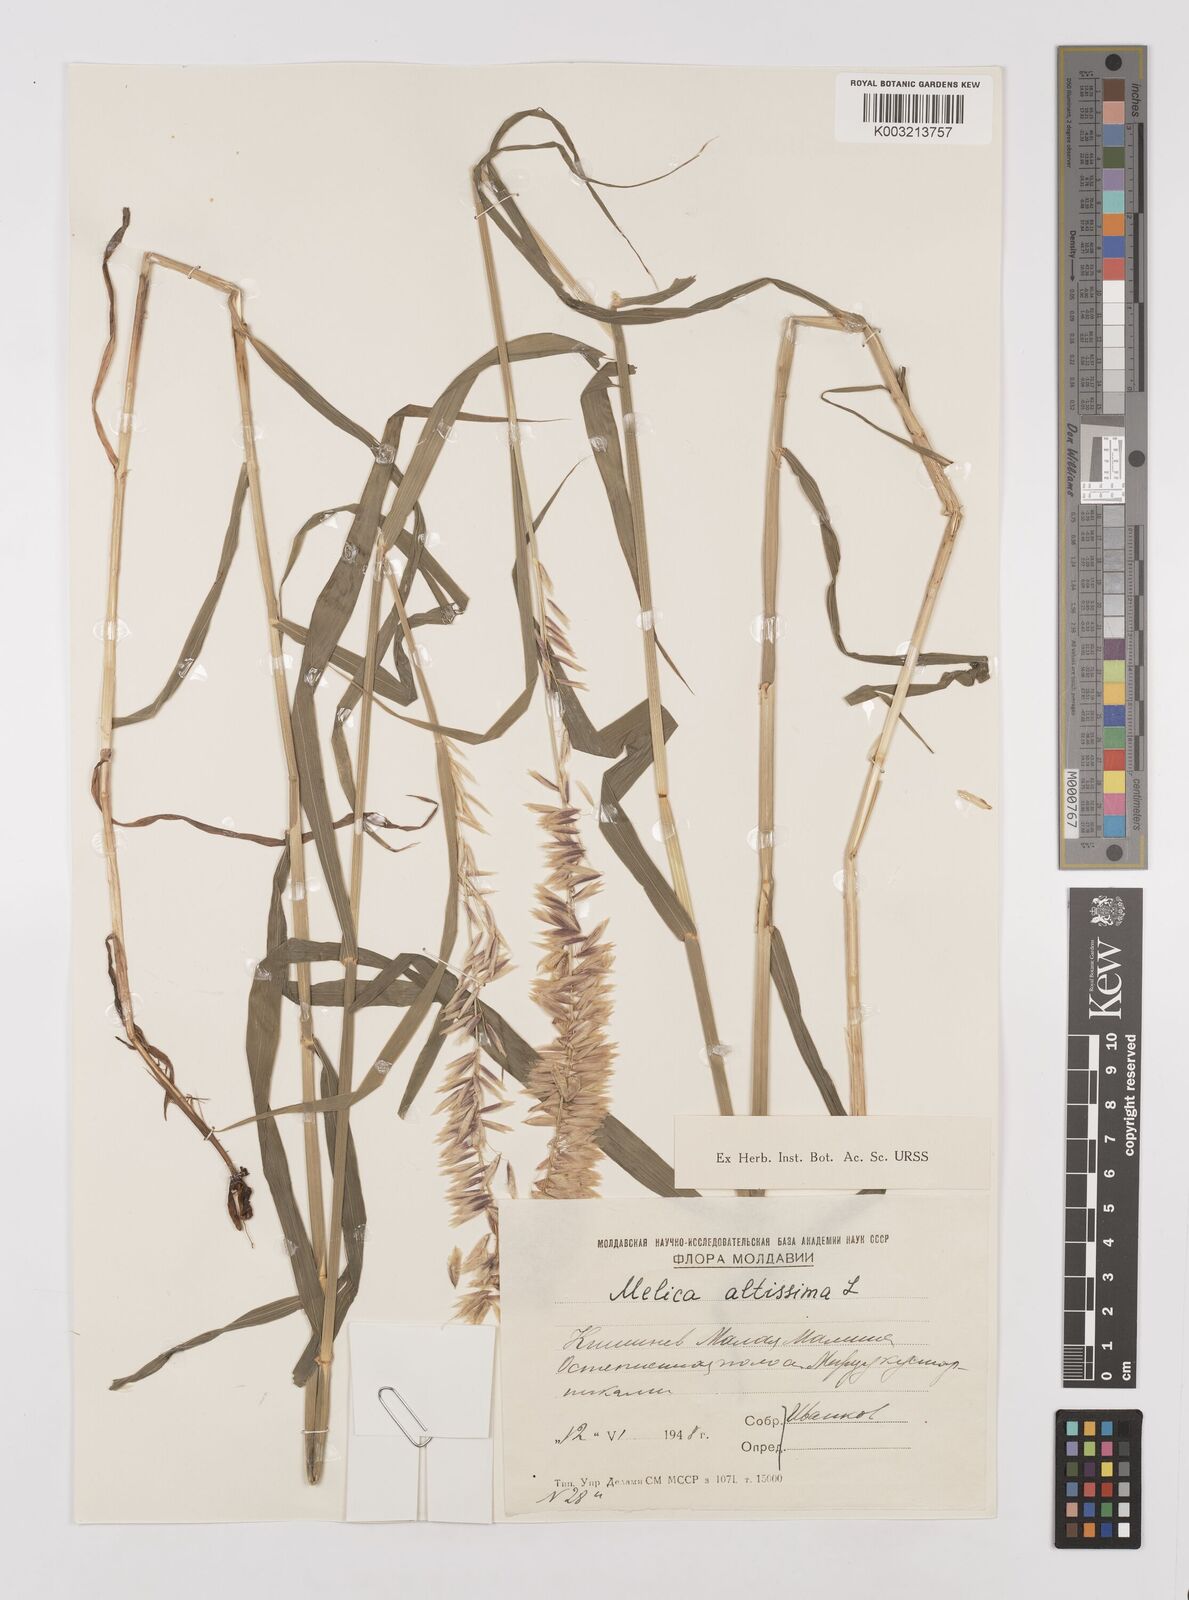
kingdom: Plantae
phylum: Tracheophyta
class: Liliopsida
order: Poales
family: Poaceae
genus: Melica
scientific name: Melica
